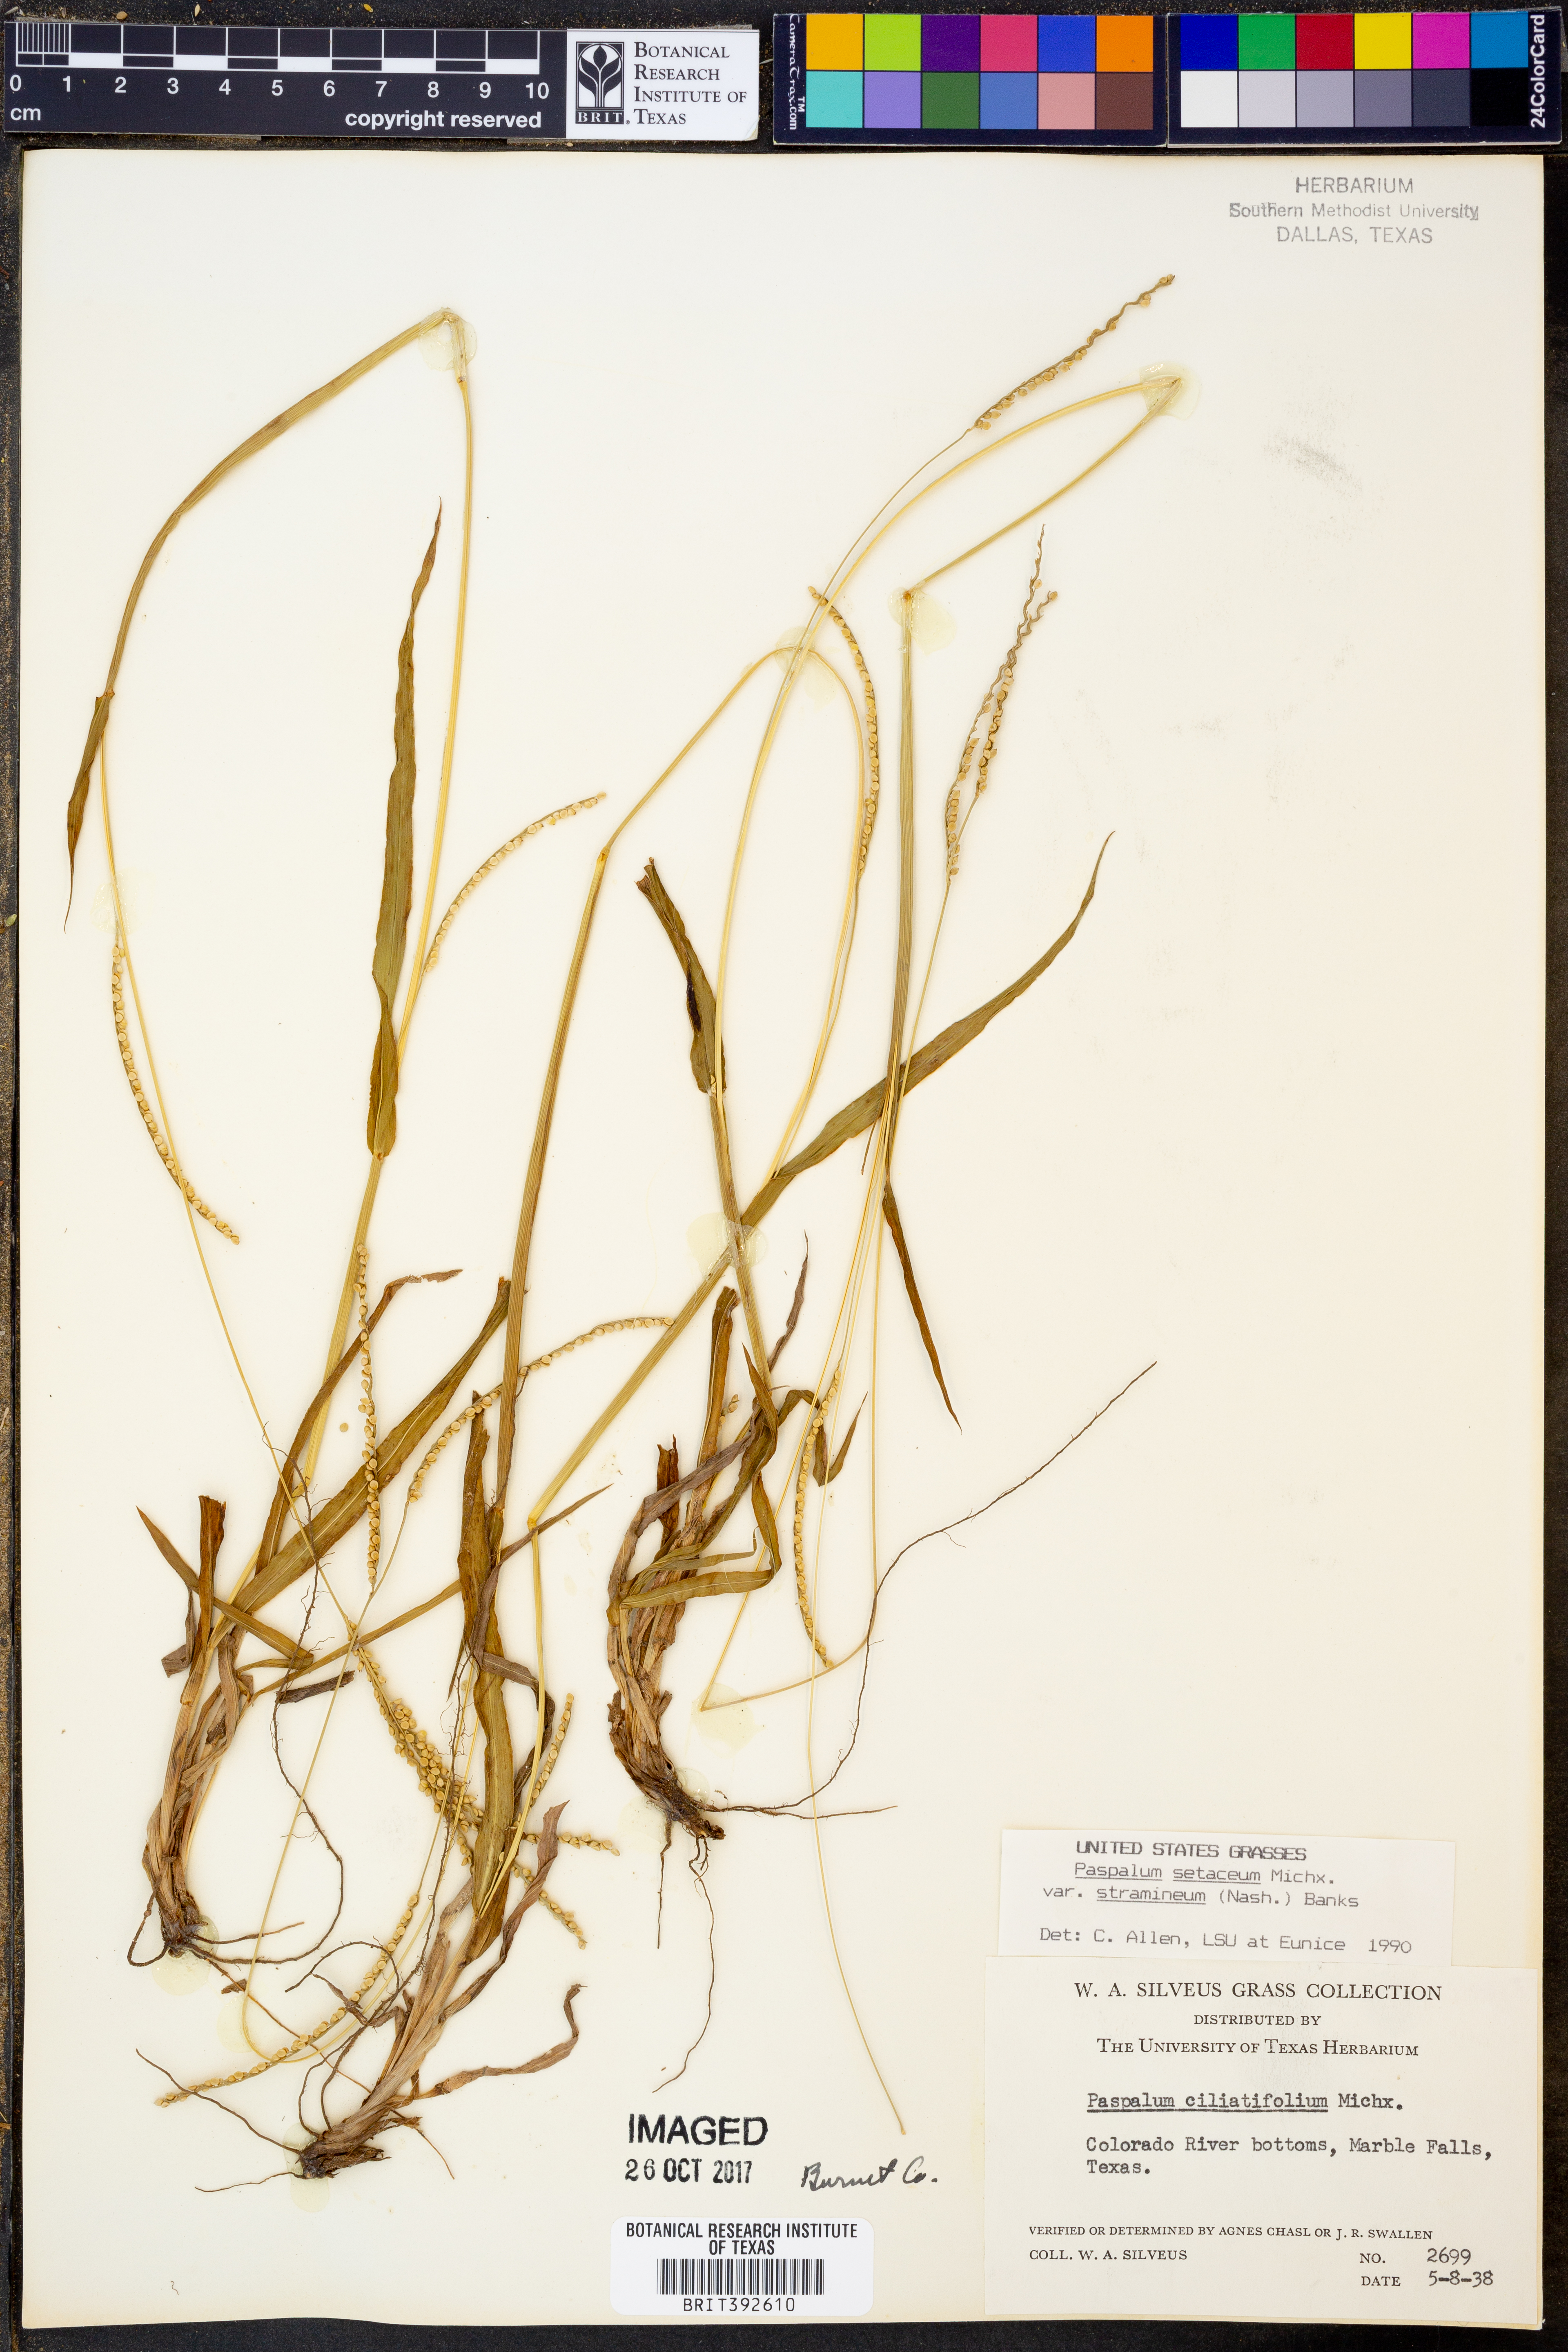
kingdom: Plantae
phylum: Tracheophyta
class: Liliopsida
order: Poales
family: Poaceae
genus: Paspalum
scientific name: Paspalum setaceum
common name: Slender paspalum
